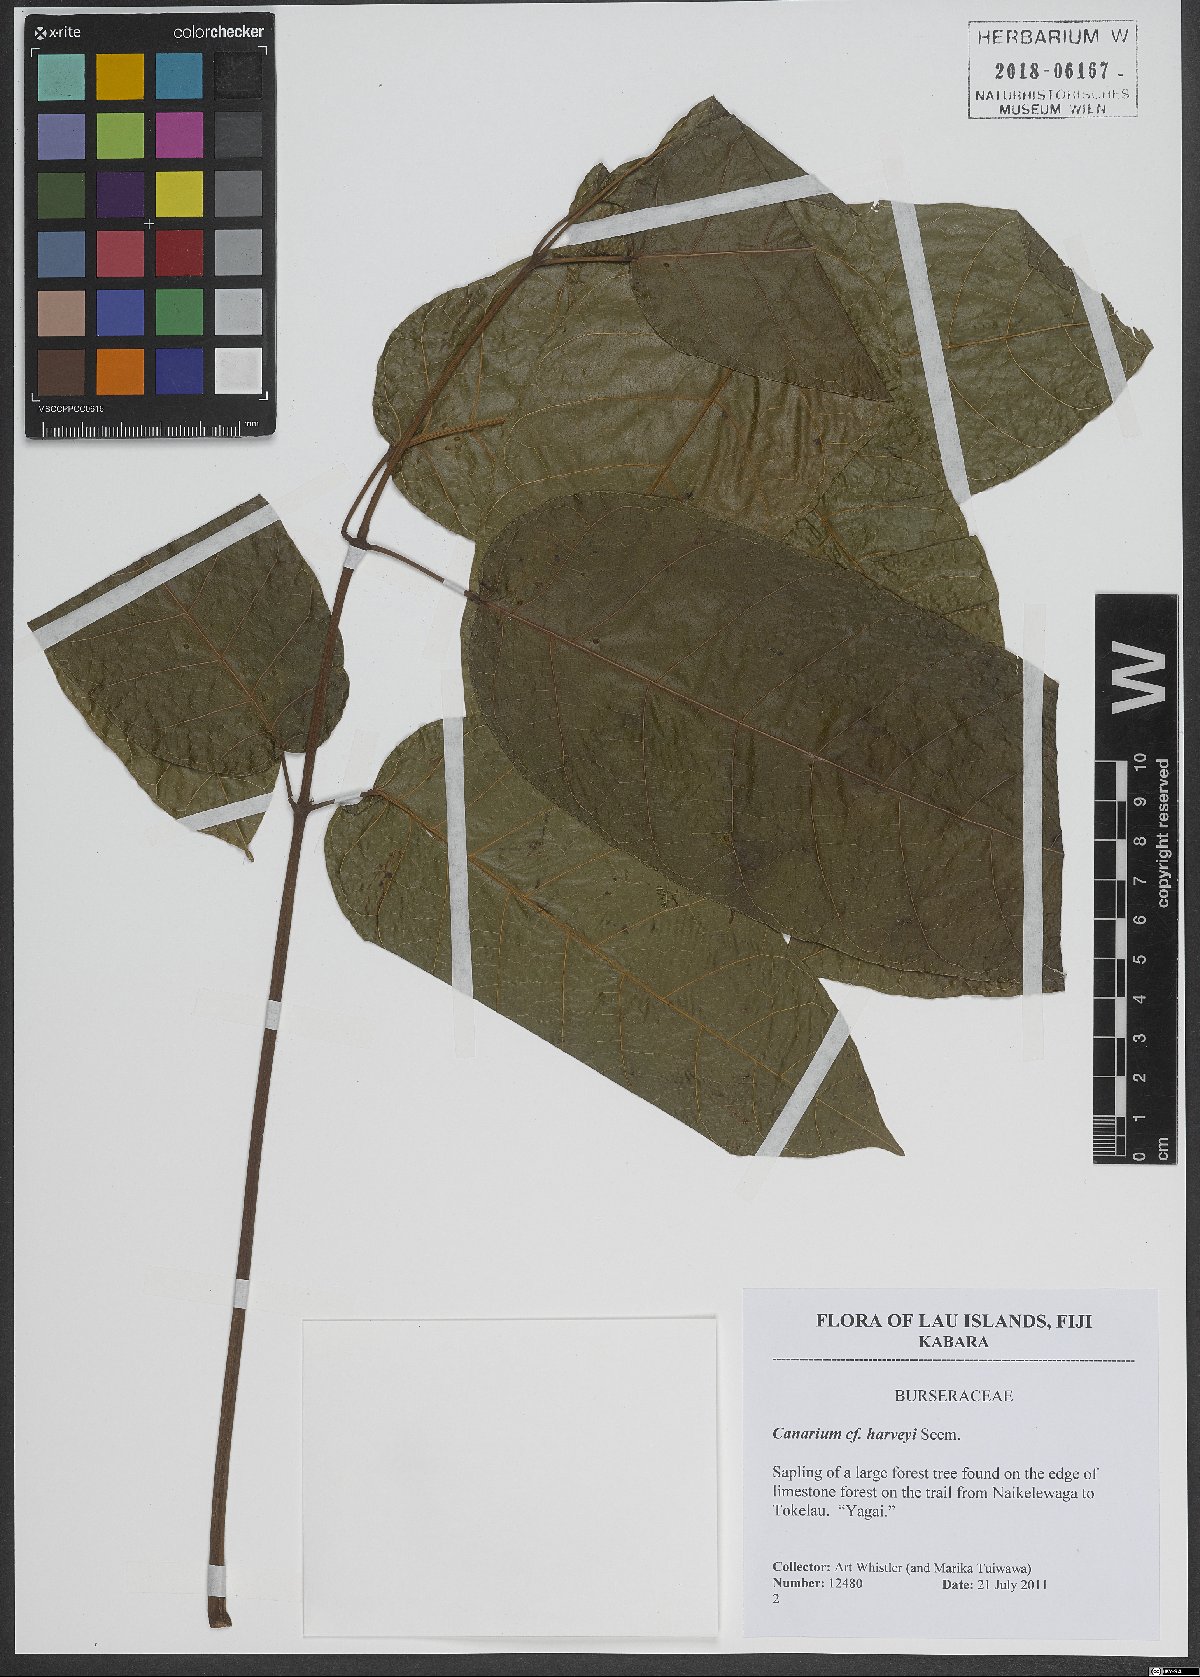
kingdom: Plantae
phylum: Tracheophyta
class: Magnoliopsida
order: Sapindales
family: Burseraceae
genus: Canarium
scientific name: Canarium harveyi
